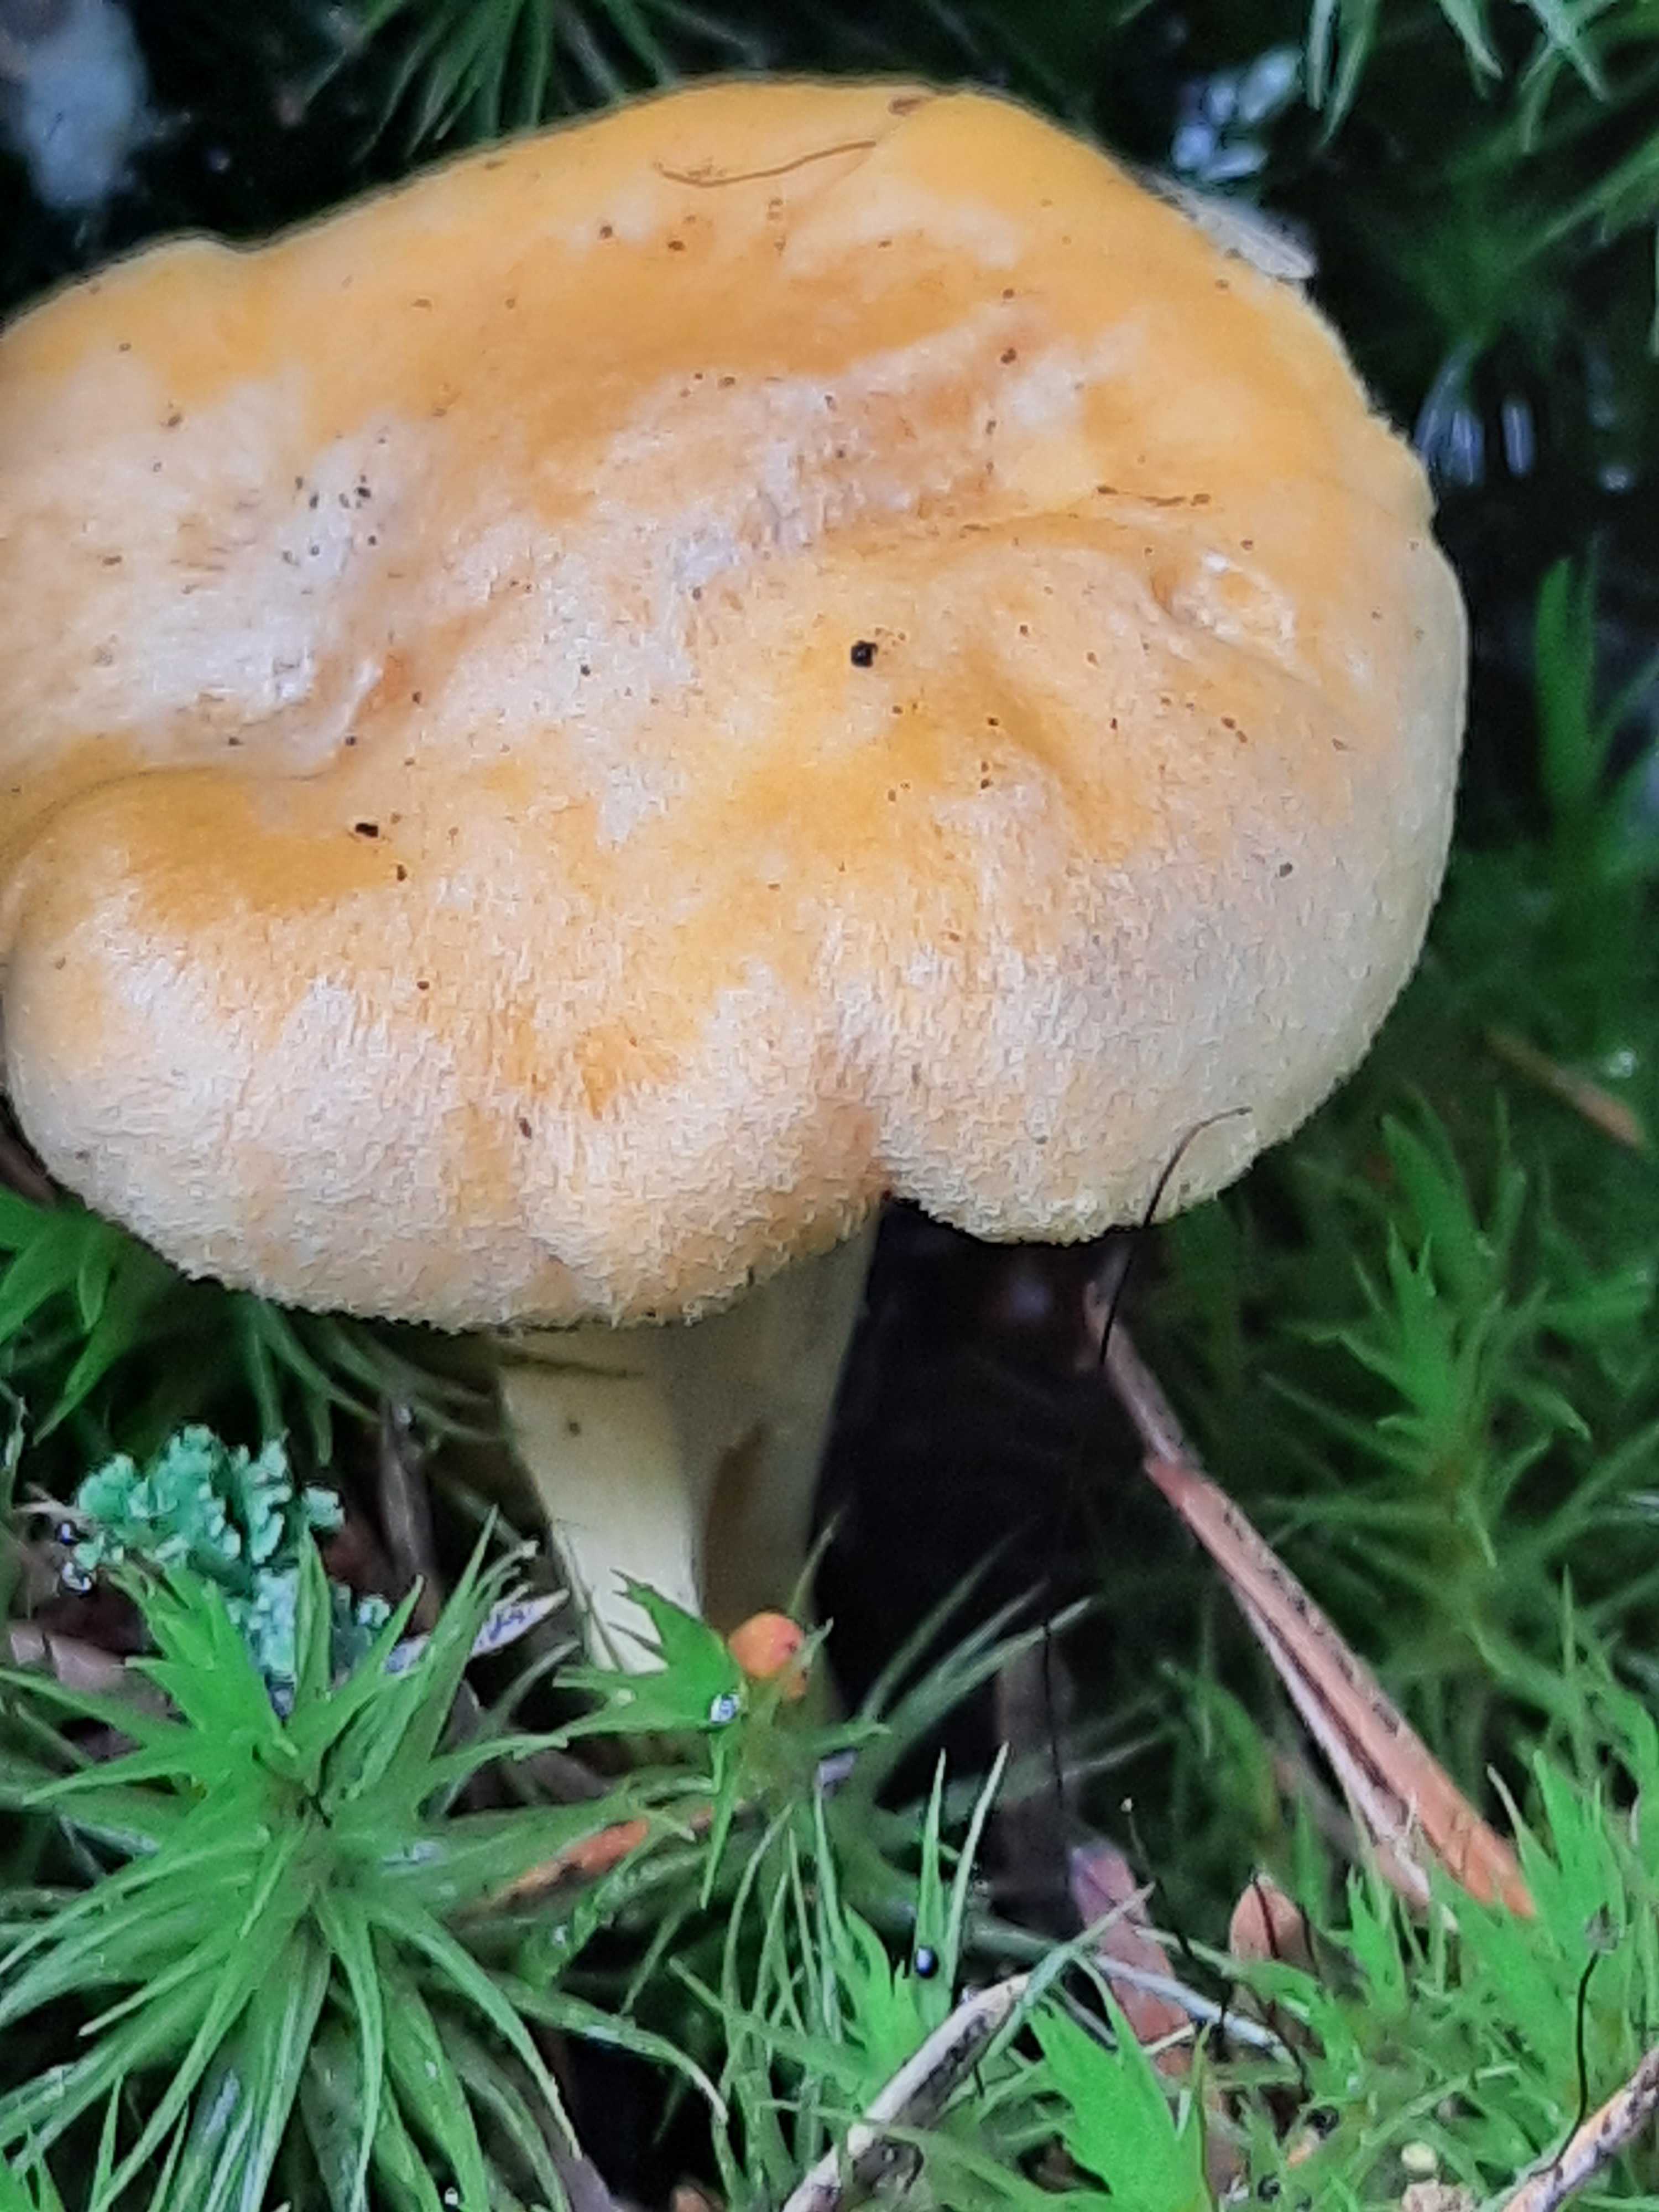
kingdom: Fungi
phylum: Basidiomycota
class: Agaricomycetes
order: Cantharellales
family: Hydnaceae
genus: Cantharellus
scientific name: Cantharellus cibarius
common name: almindelig kantarel
